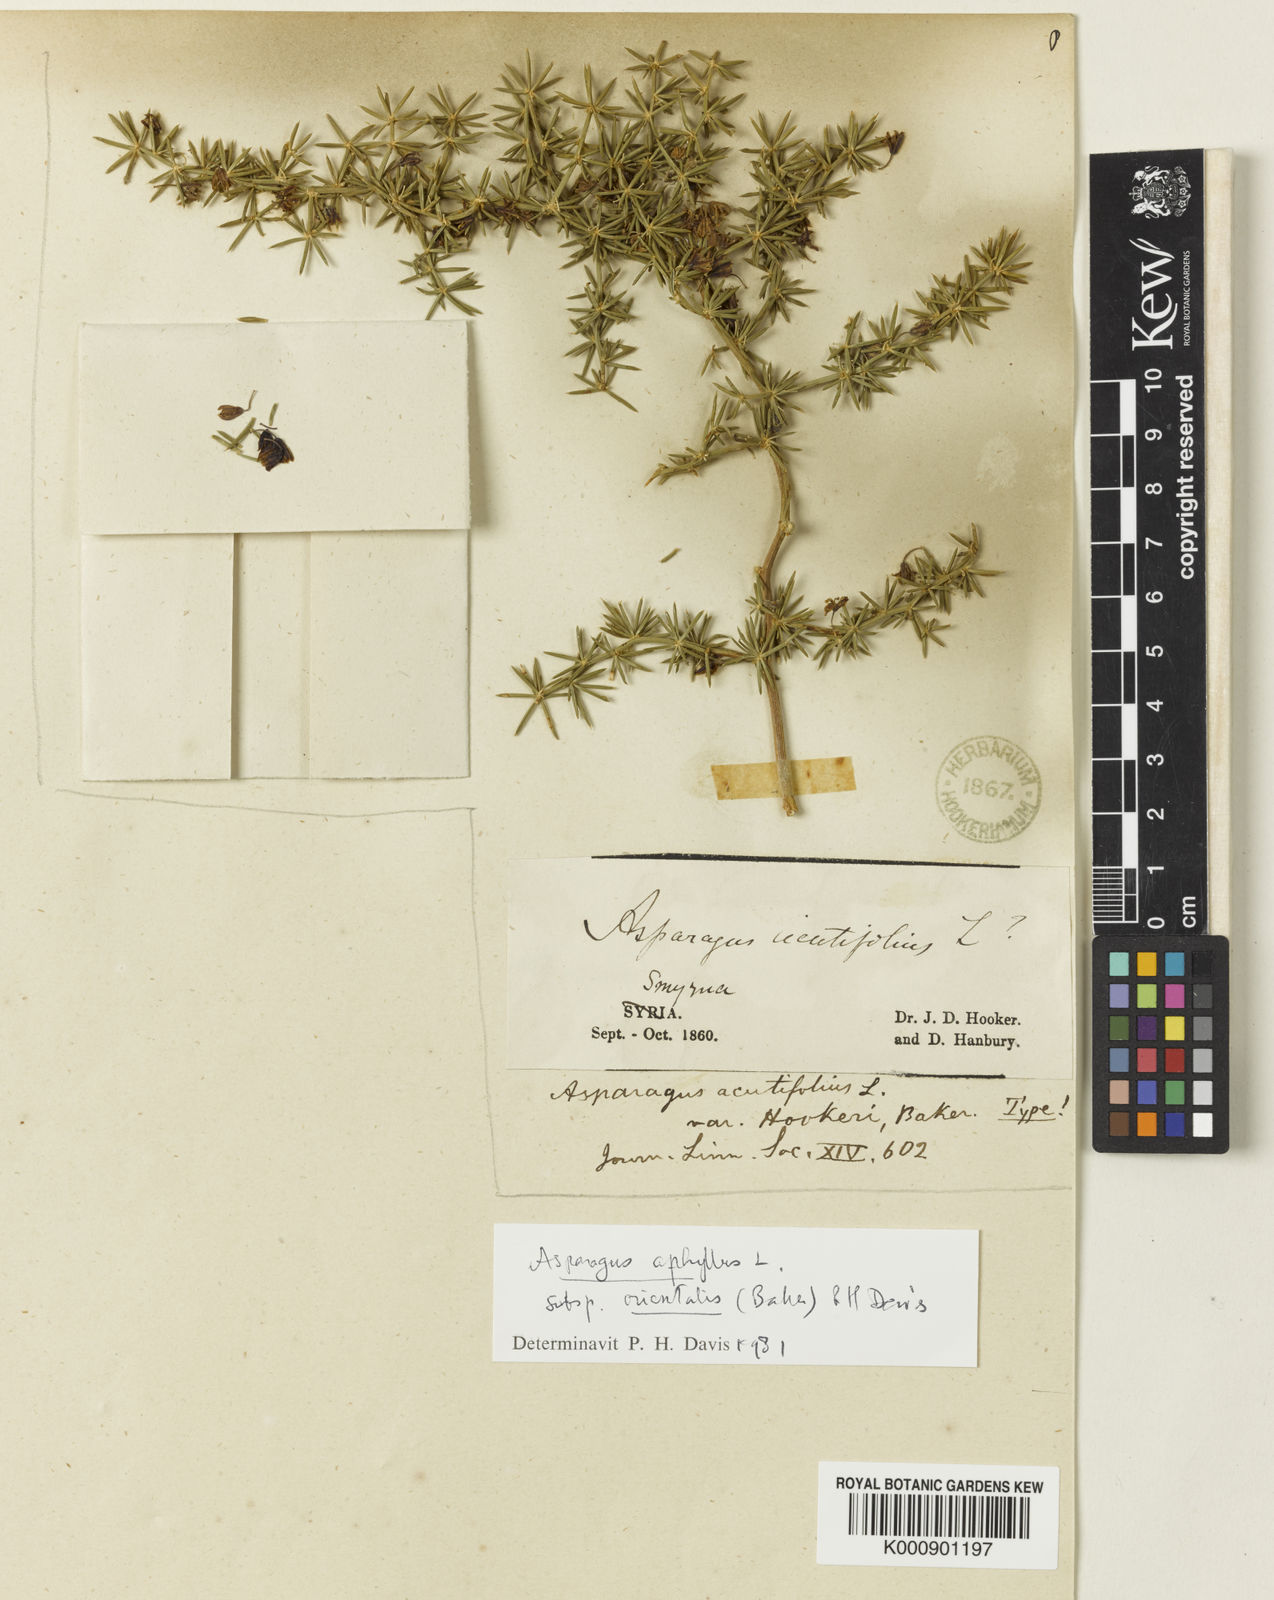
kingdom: Plantae
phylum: Tracheophyta
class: Liliopsida
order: Asparagales
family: Asparagaceae
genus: Asparagus
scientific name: Asparagus aphyllus
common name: Mediterranean asparagus
